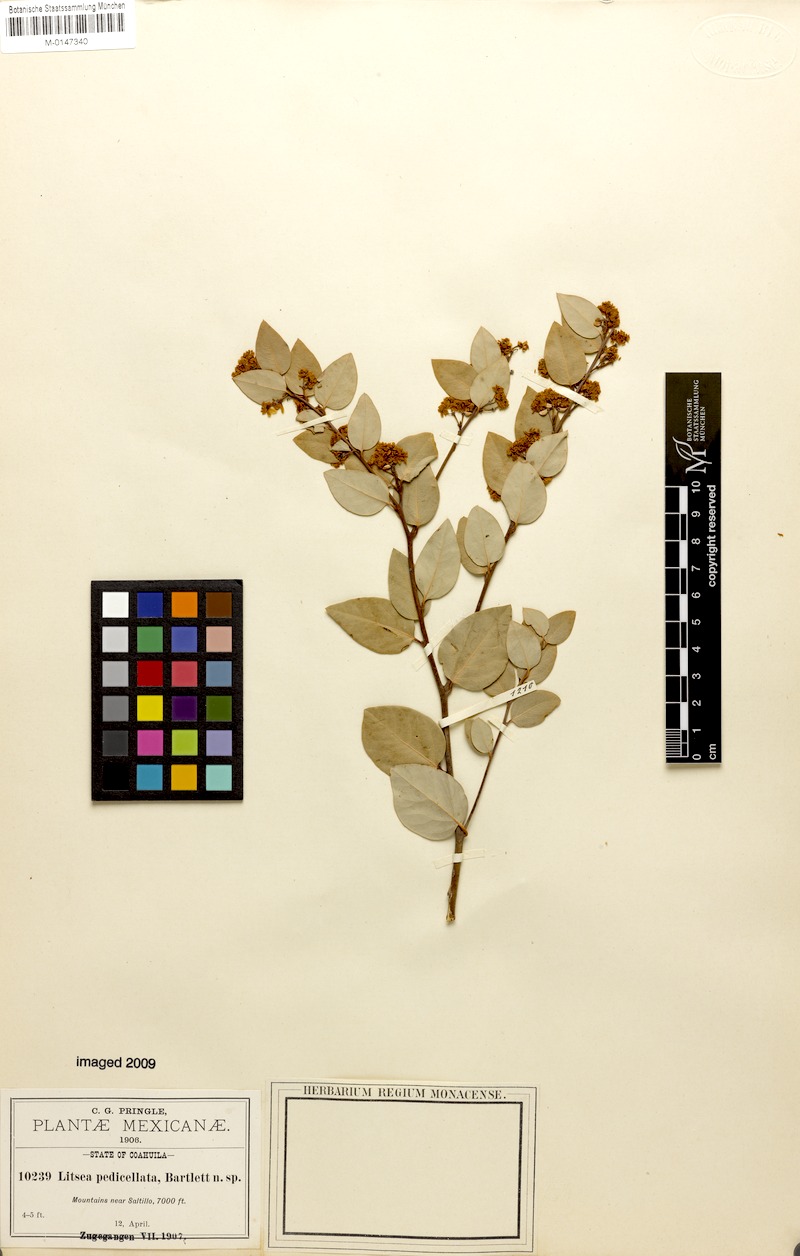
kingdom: Plantae
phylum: Tracheophyta
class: Magnoliopsida
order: Laurales
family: Lauraceae
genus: Litsea
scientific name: Litsea parvifolia
